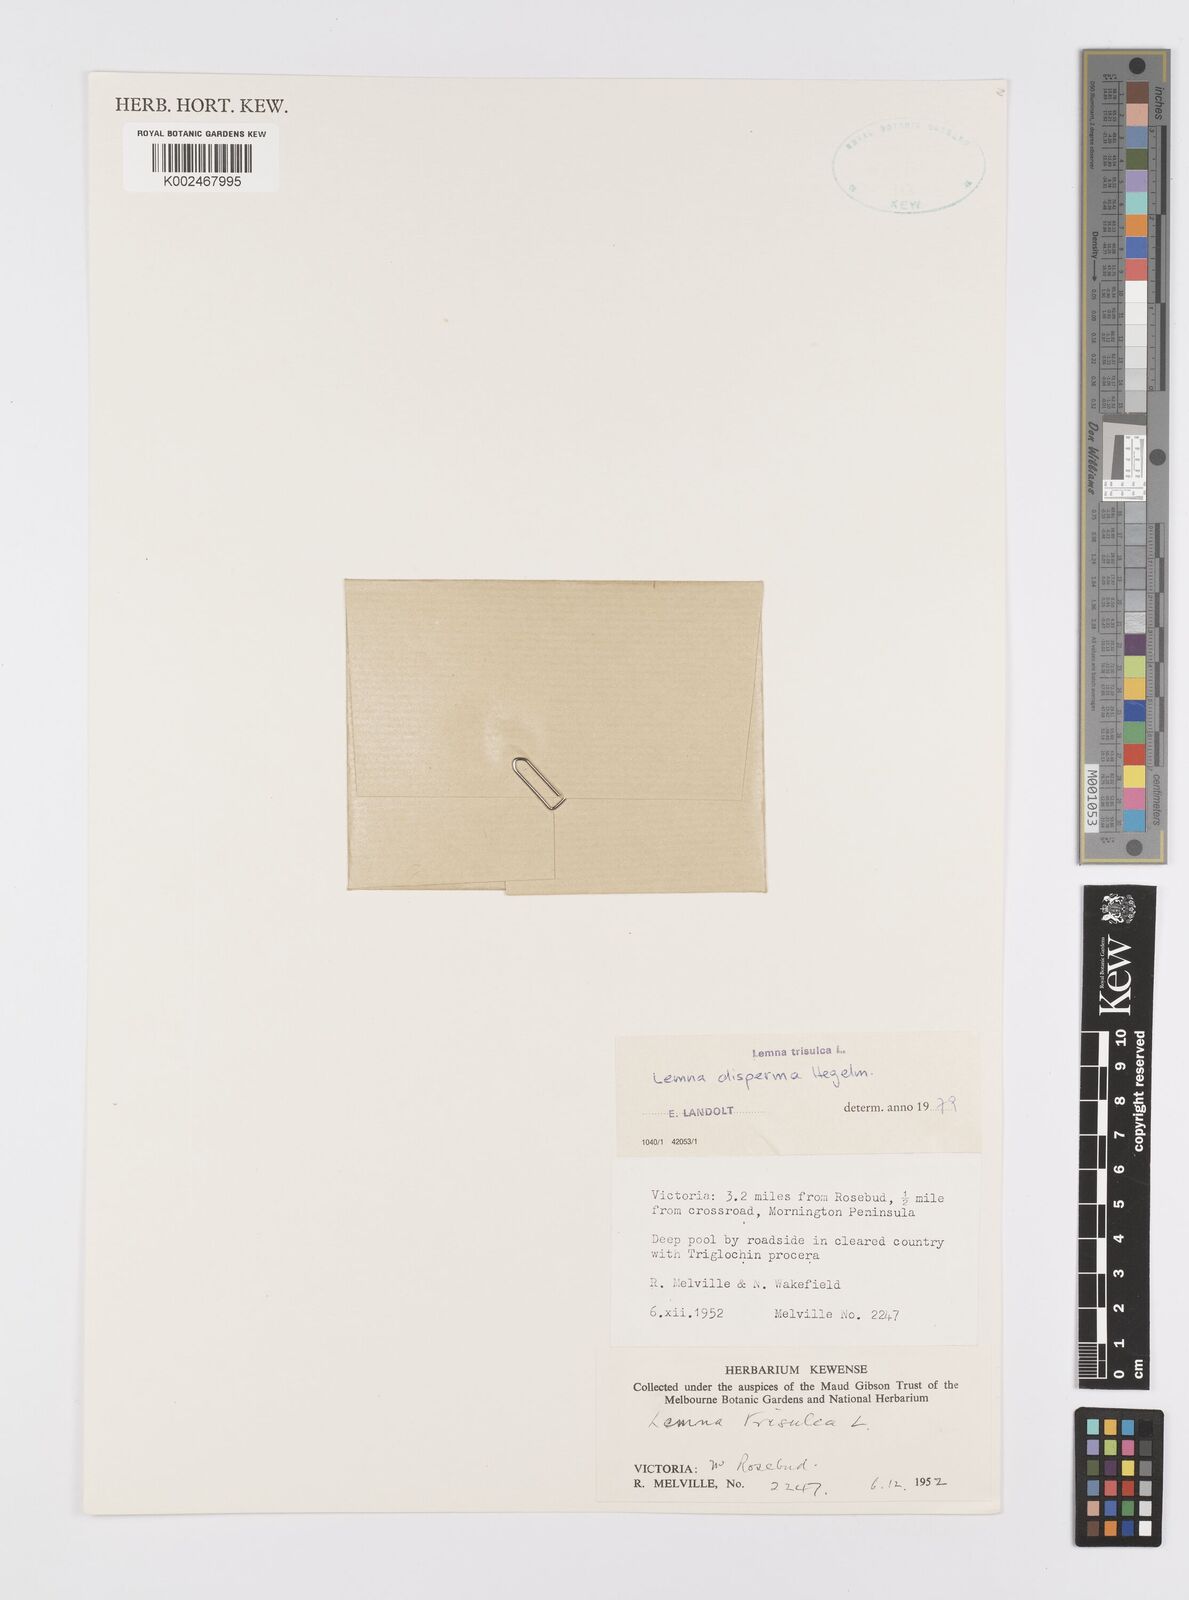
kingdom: Plantae
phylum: Tracheophyta
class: Liliopsida
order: Alismatales
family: Araceae
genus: Lemna
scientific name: Lemna trisulca
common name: Ivy-leaved duckweed
